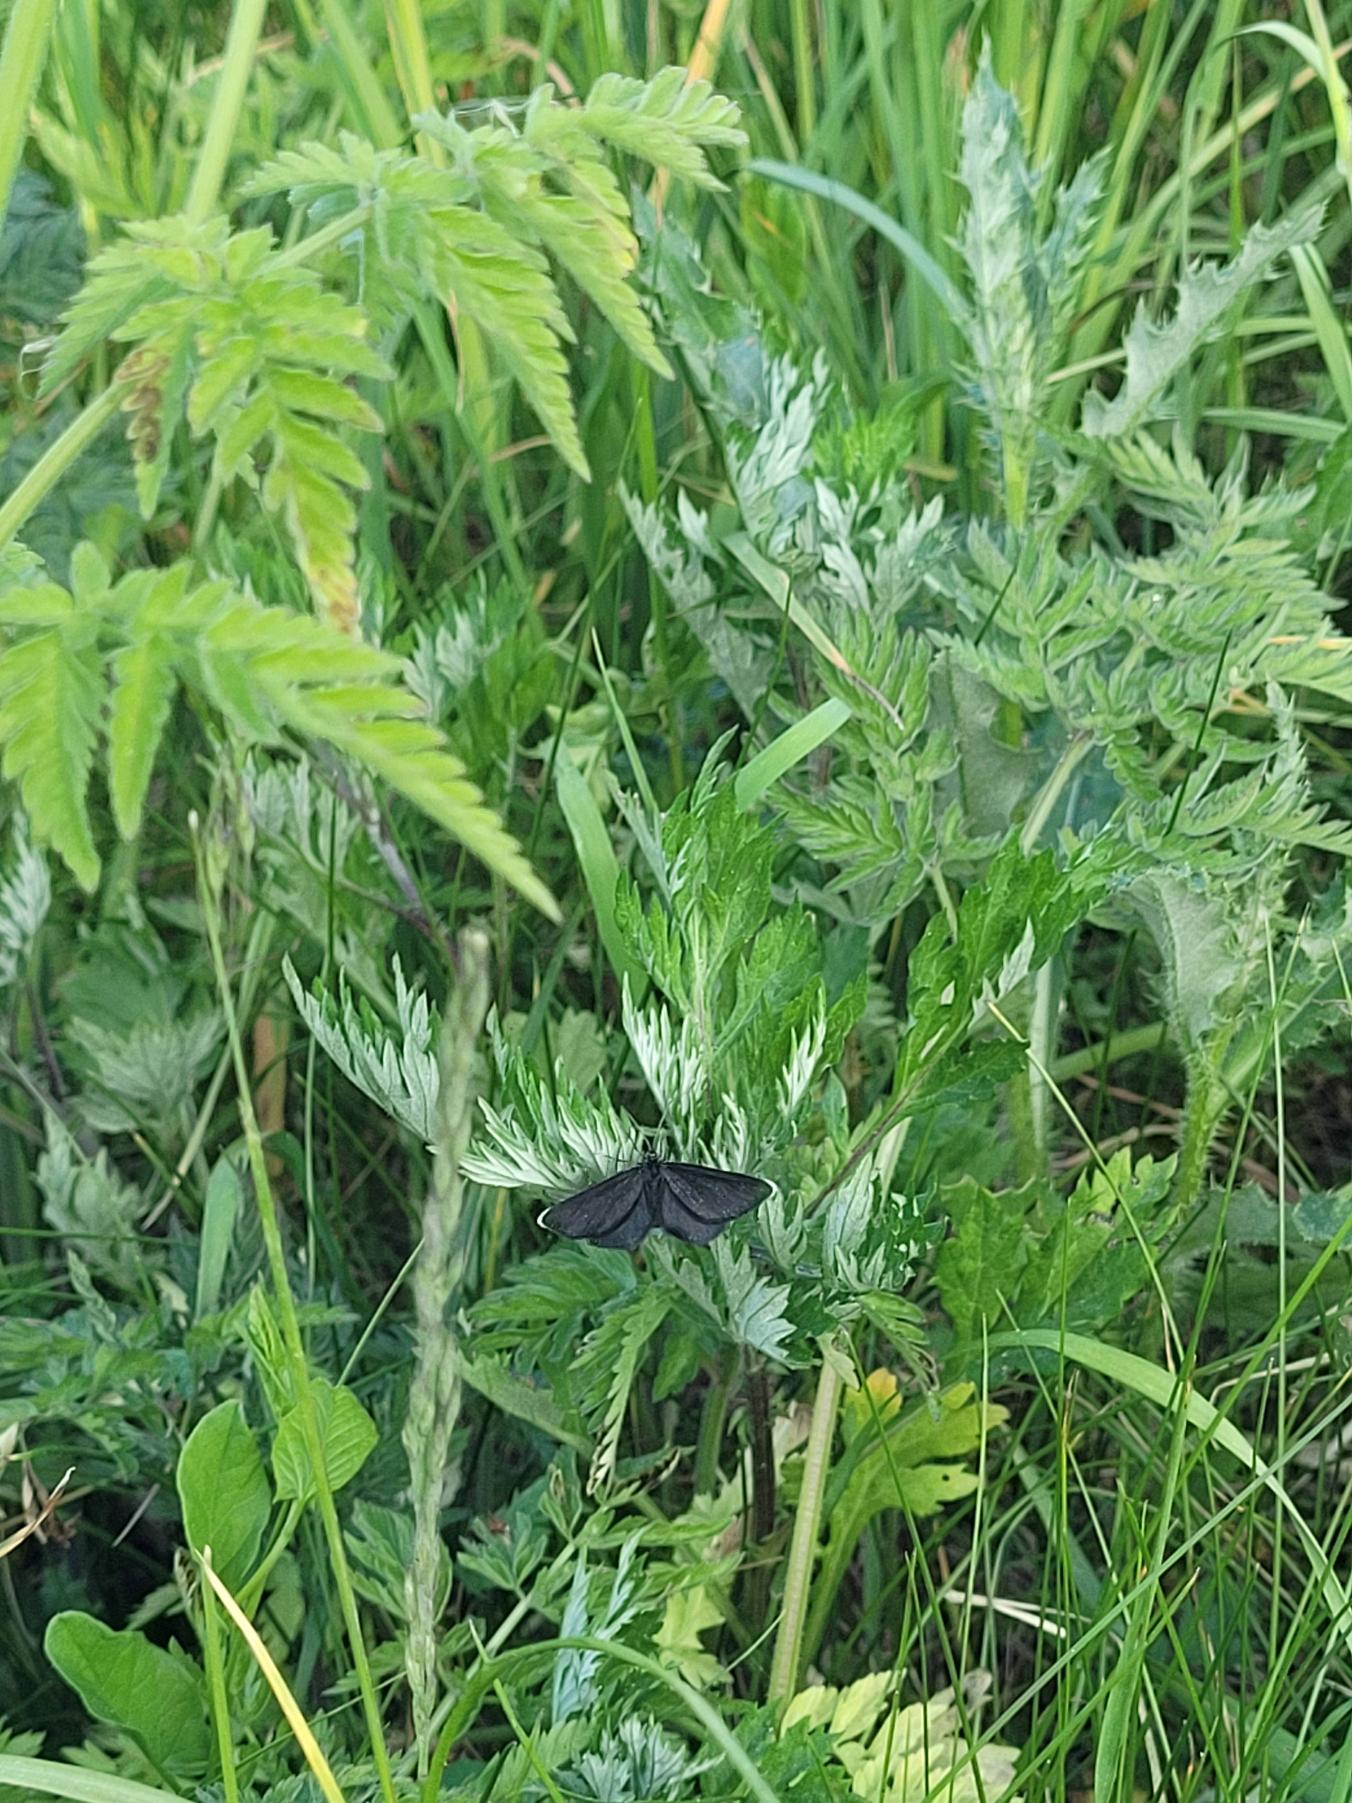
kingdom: Animalia
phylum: Arthropoda
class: Insecta
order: Lepidoptera
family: Geometridae
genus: Odezia
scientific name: Odezia atrata
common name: Sort måler
